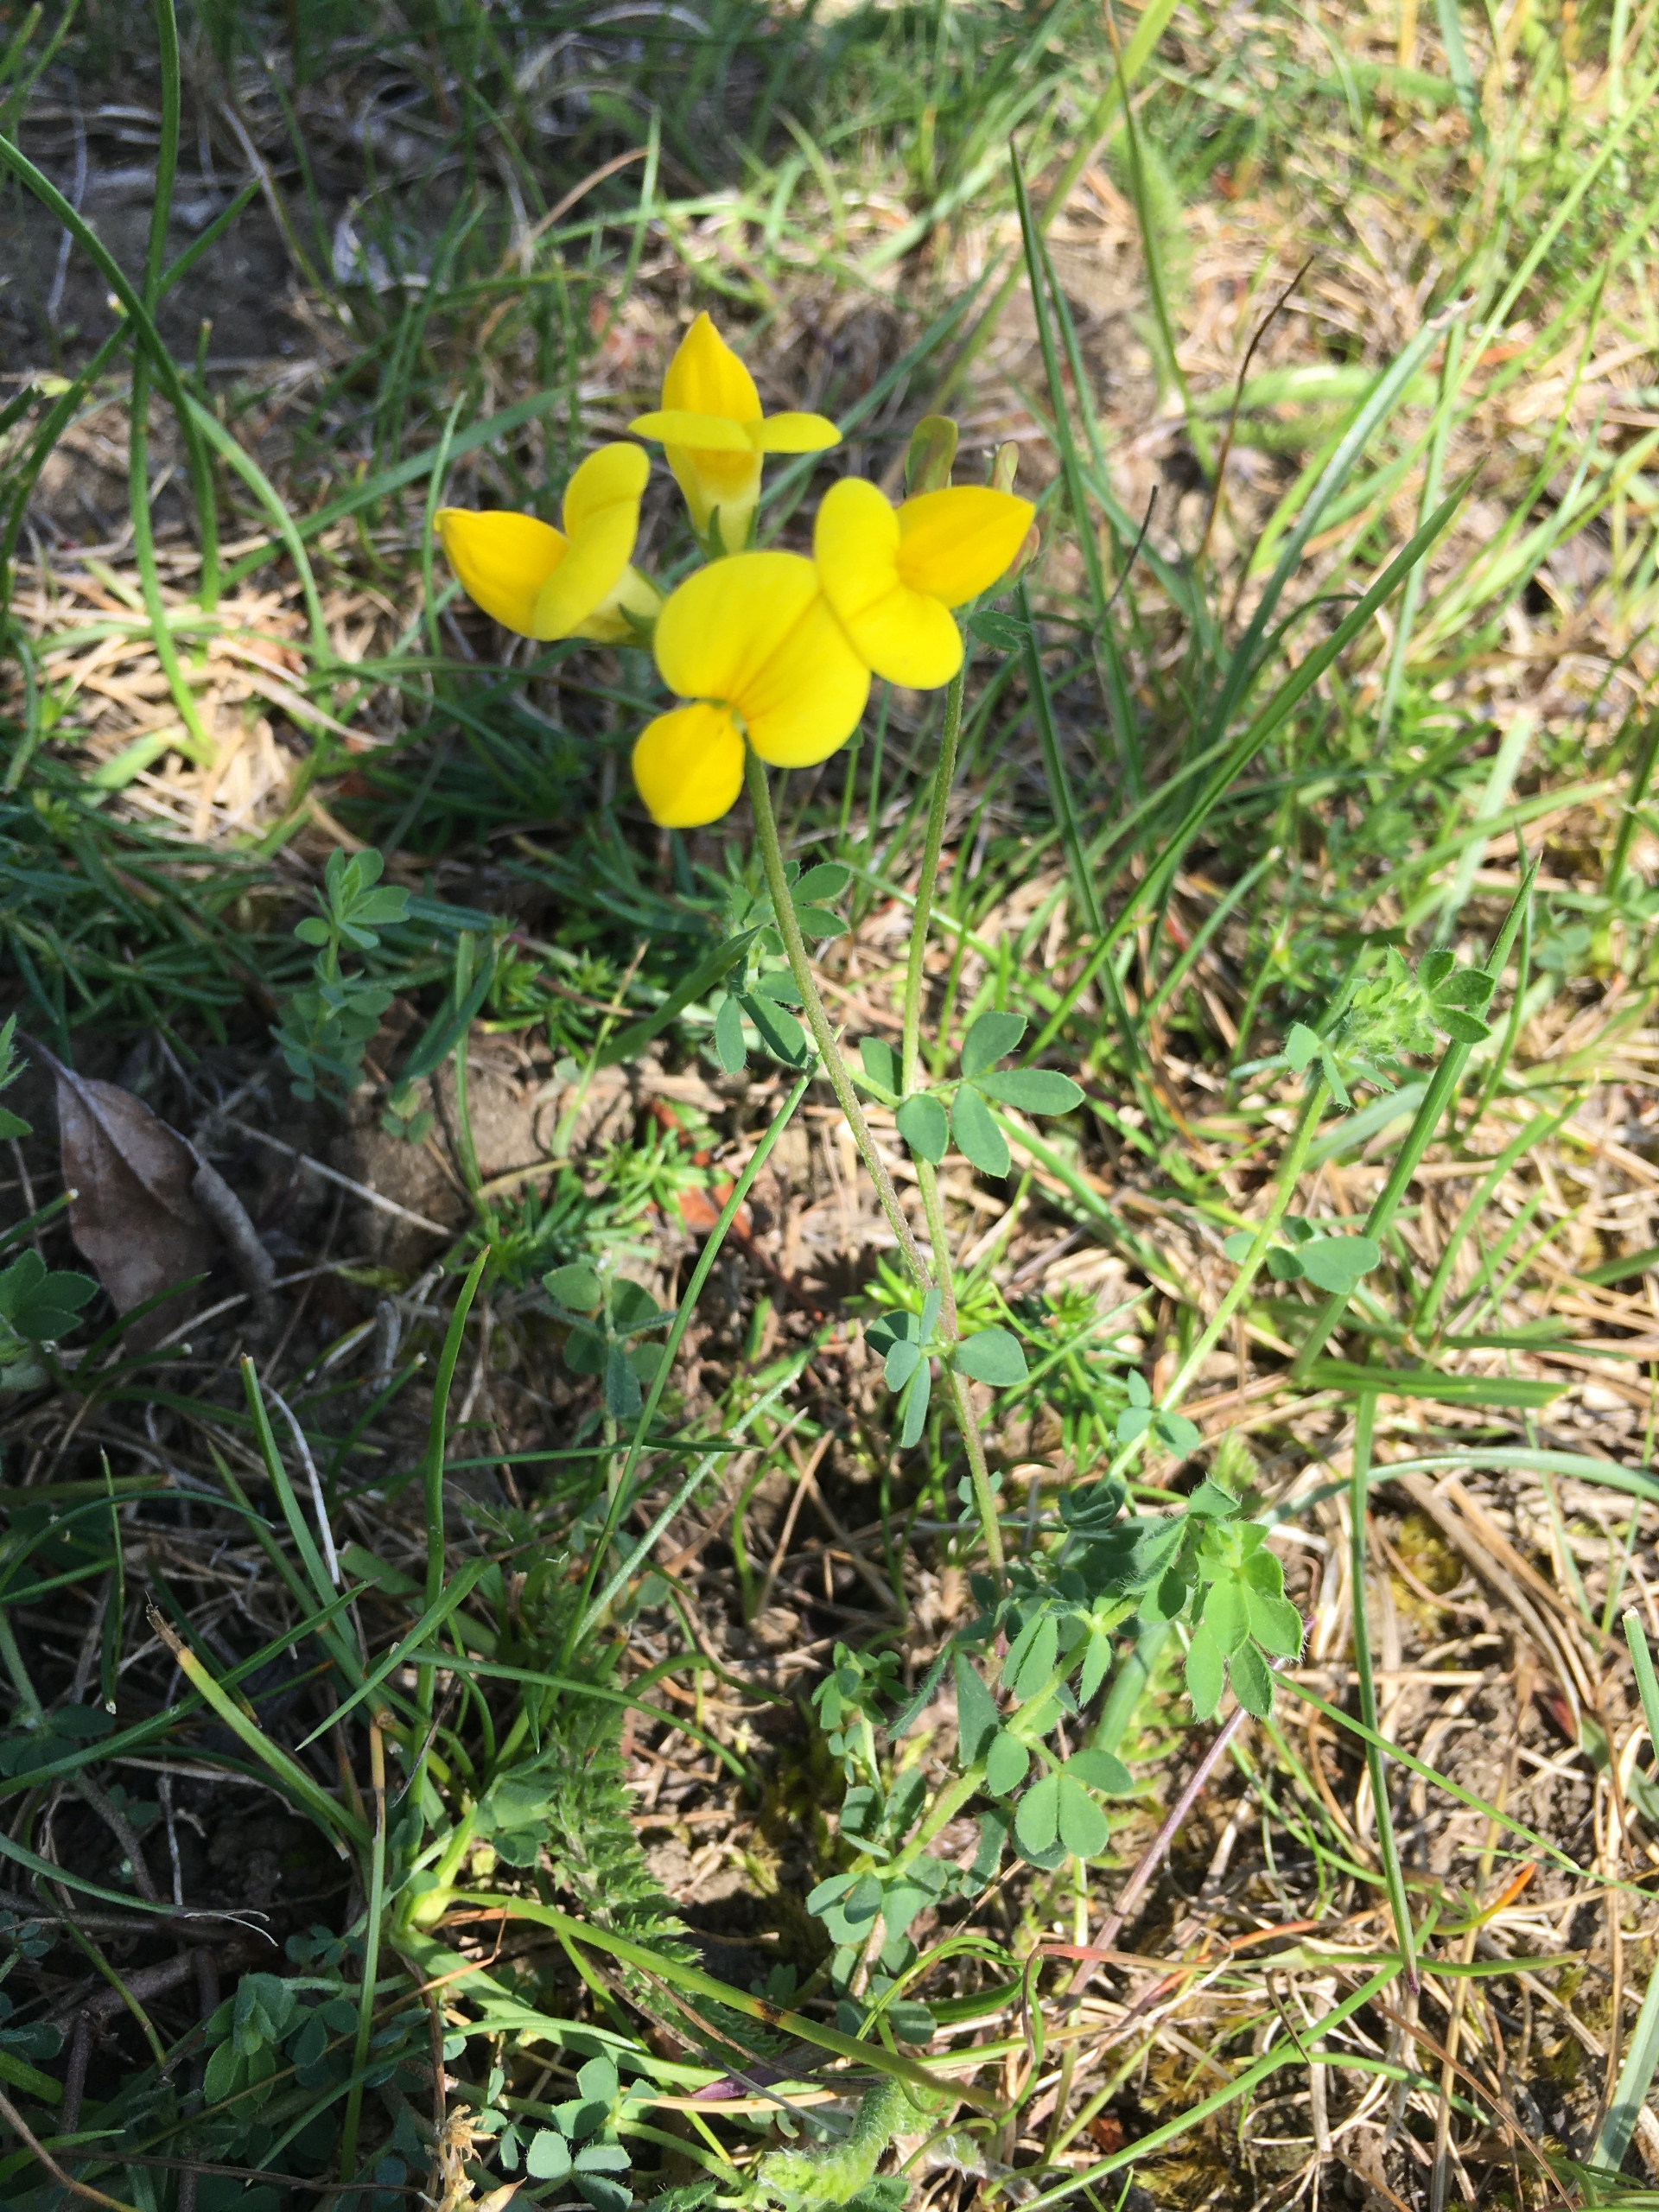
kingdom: Plantae
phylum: Tracheophyta
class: Magnoliopsida
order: Fabales
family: Fabaceae
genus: Lotus
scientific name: Lotus corniculatus
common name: Almindelig kællingetand
